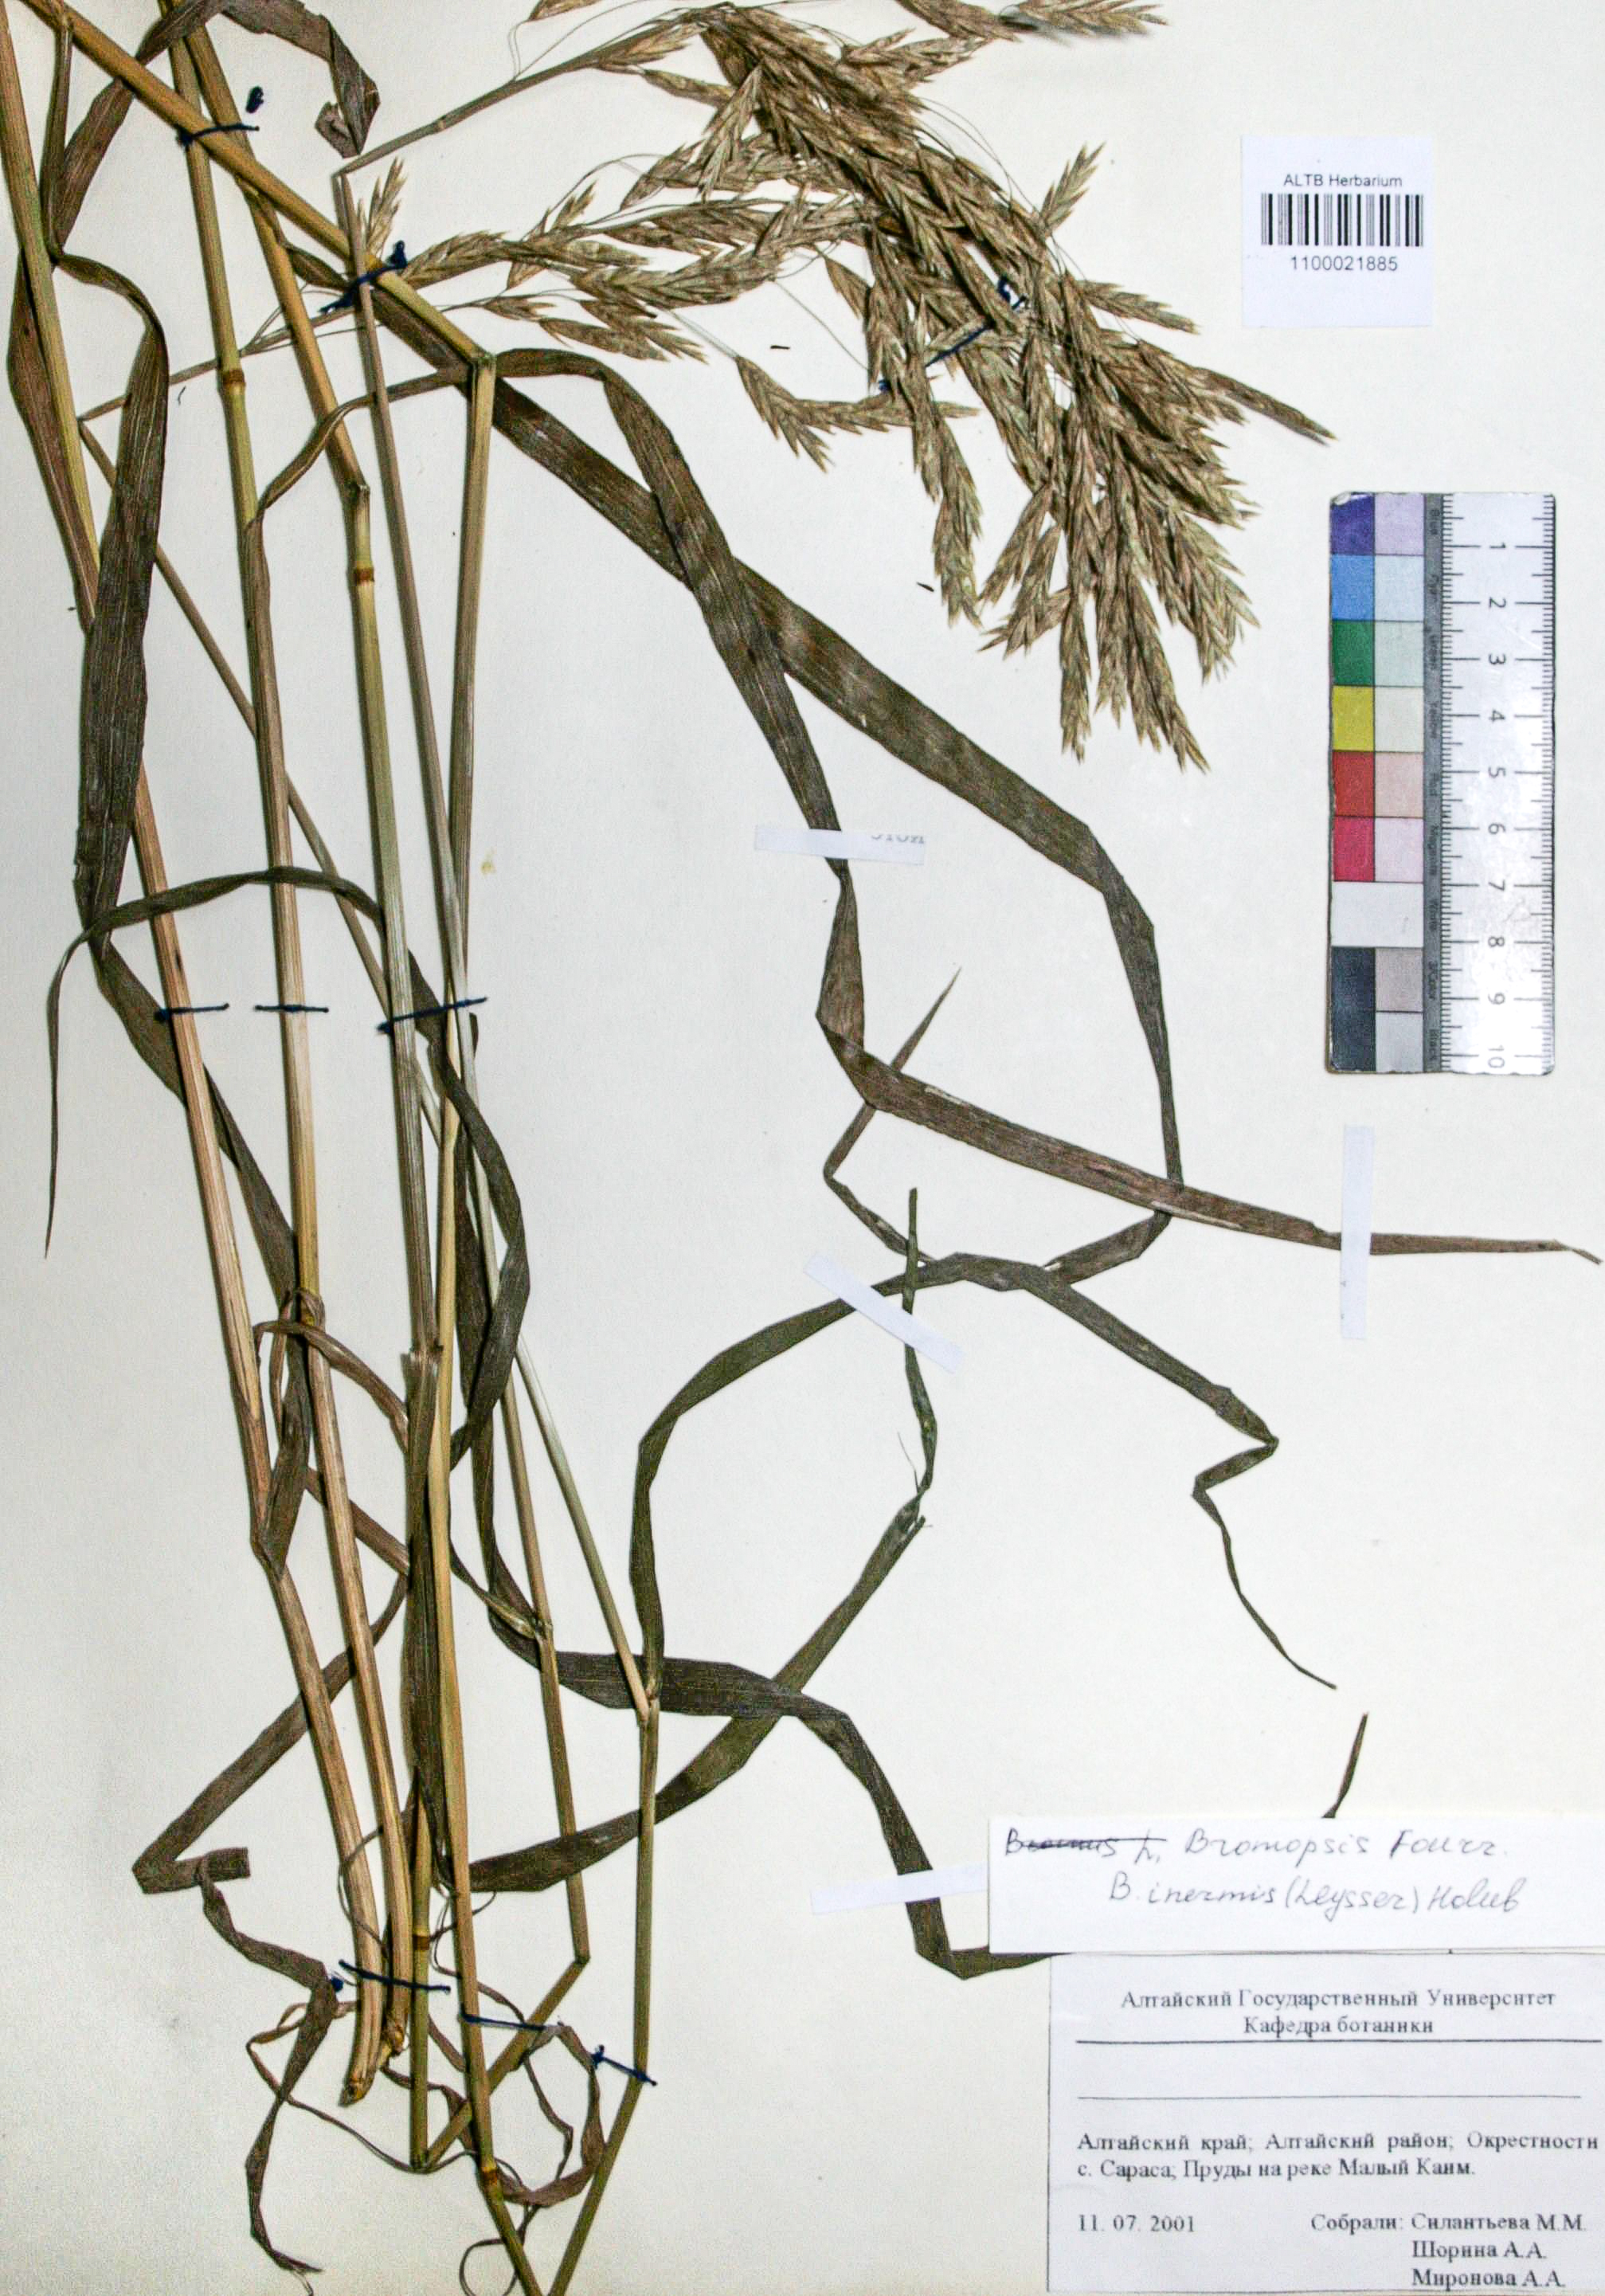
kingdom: Plantae
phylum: Tracheophyta
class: Liliopsida
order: Poales
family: Poaceae
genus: Bromus
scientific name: Bromus inermis
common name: Smooth brome
